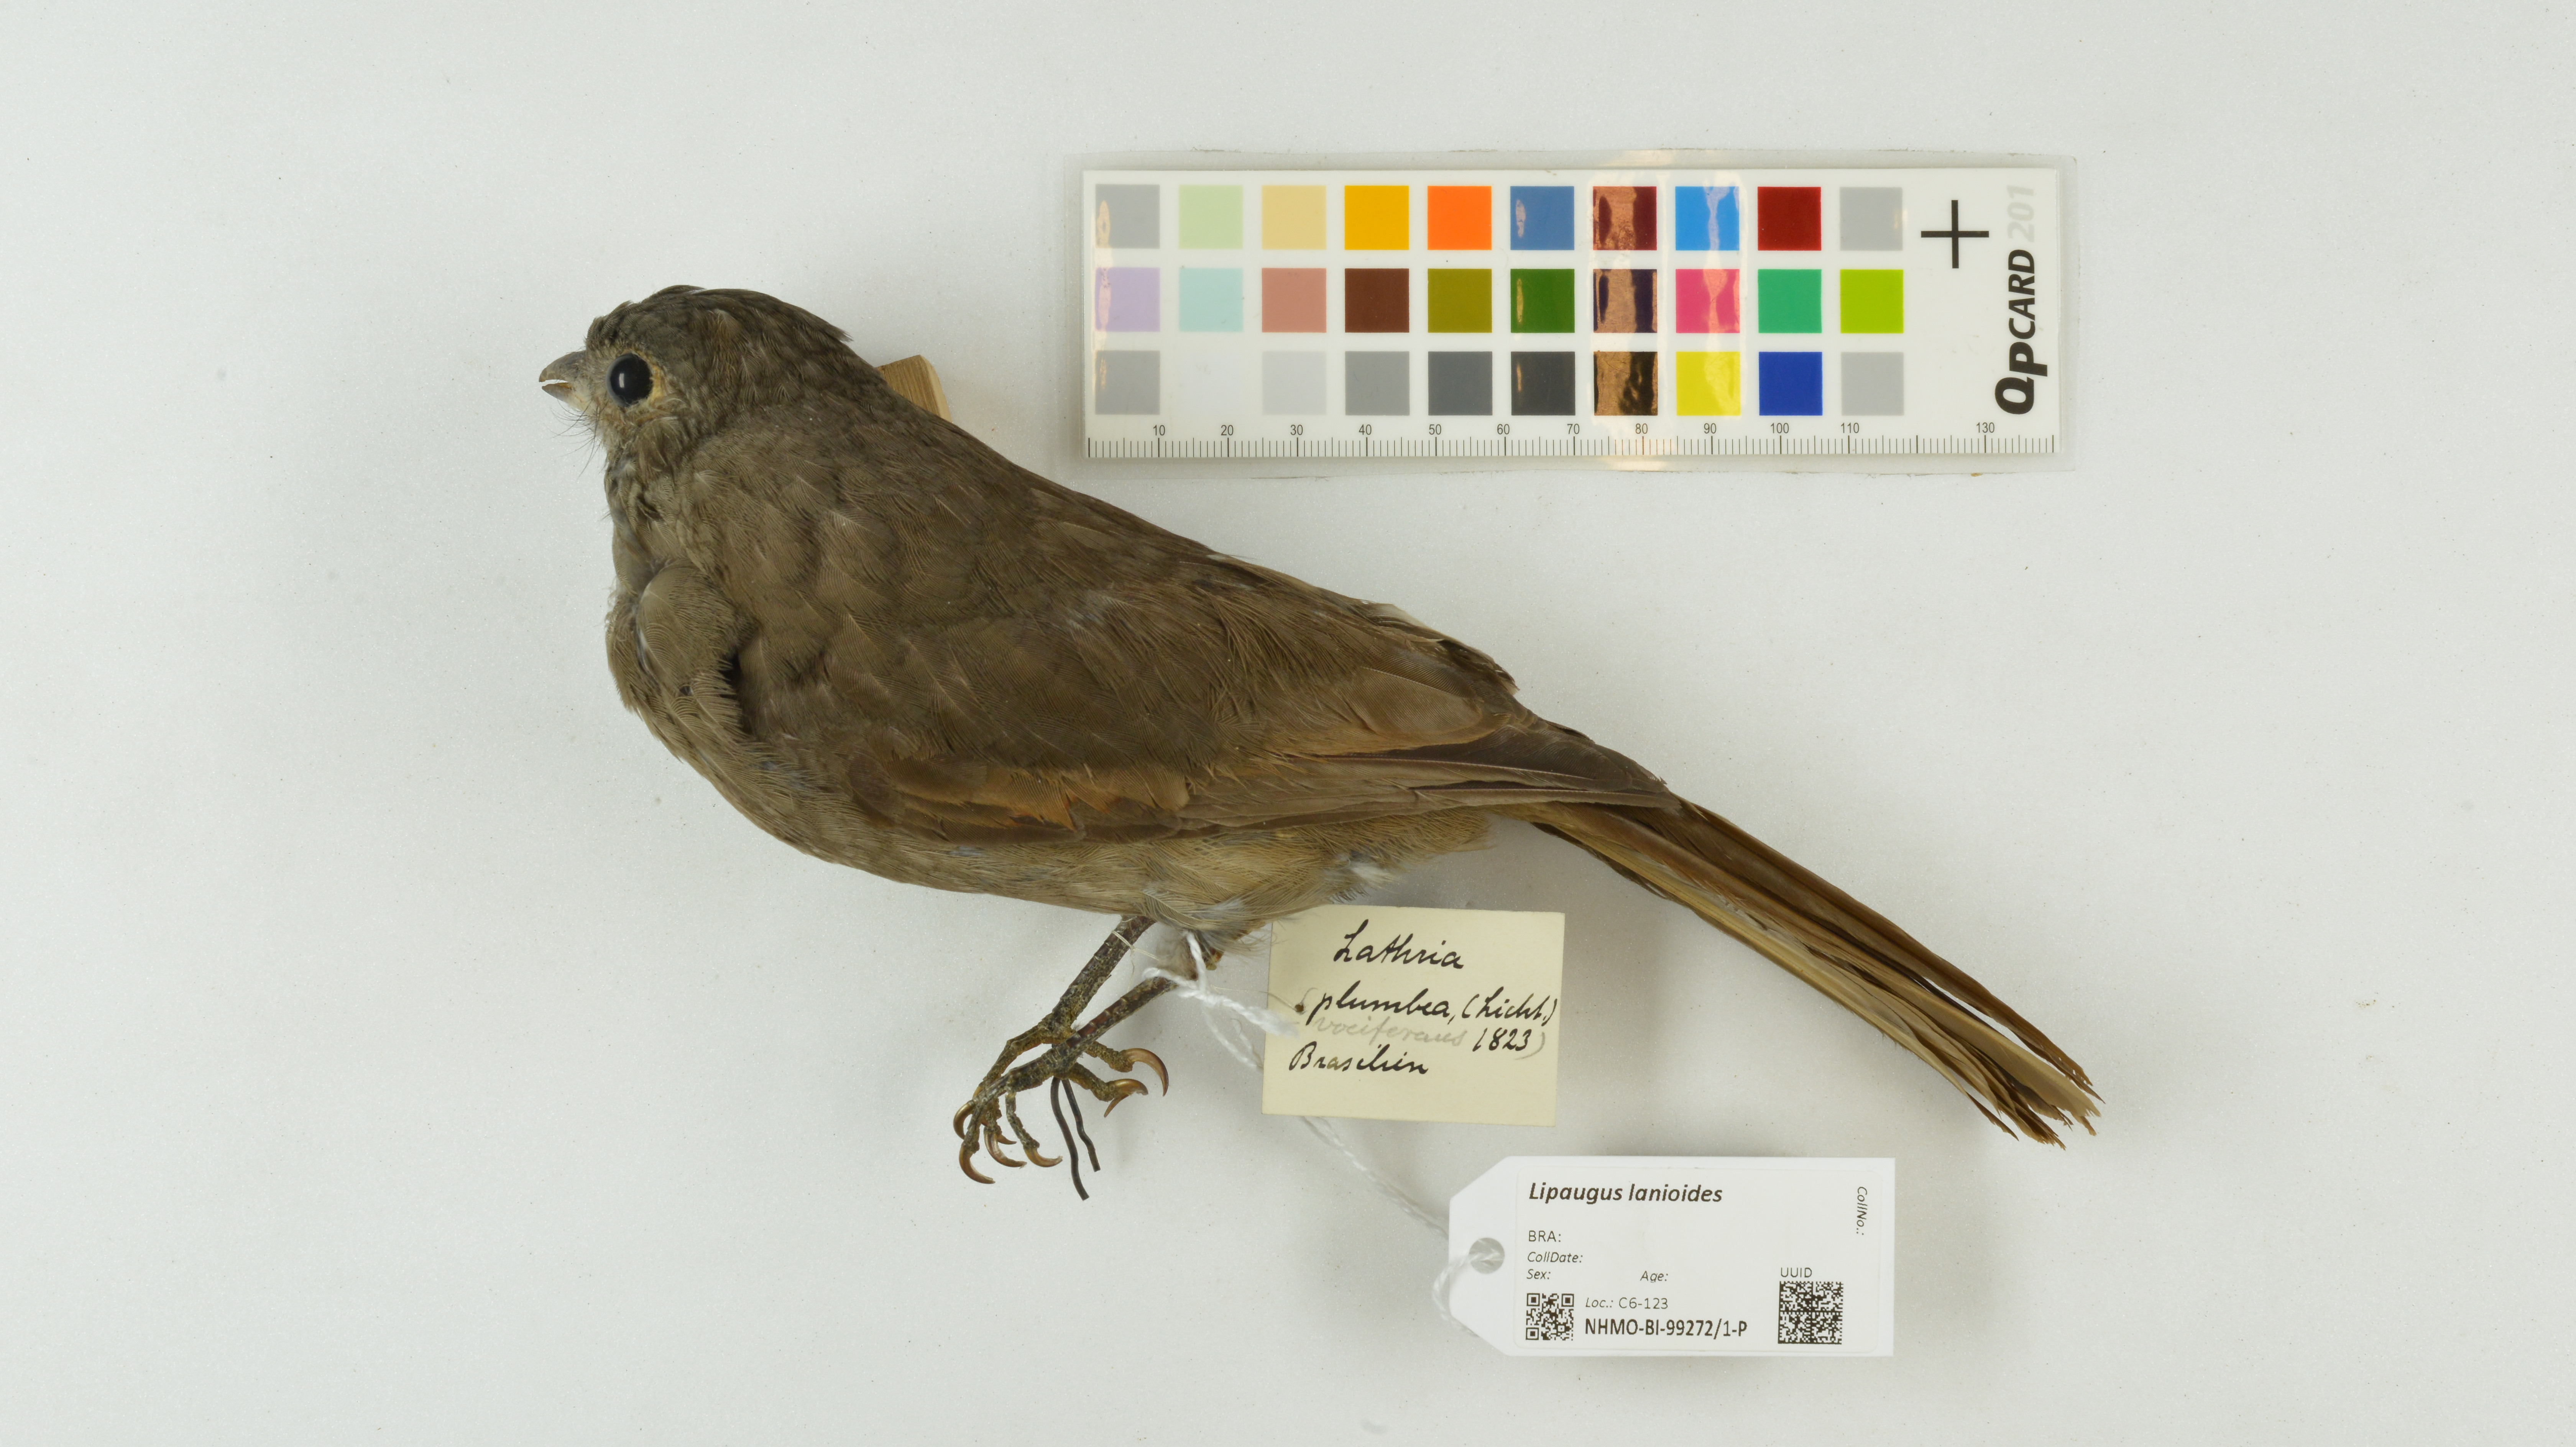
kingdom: Animalia
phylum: Chordata
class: Aves
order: Passeriformes
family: Cotingidae
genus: Lipaugus
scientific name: Lipaugus lanioides
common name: Cinnamon-vented piha
